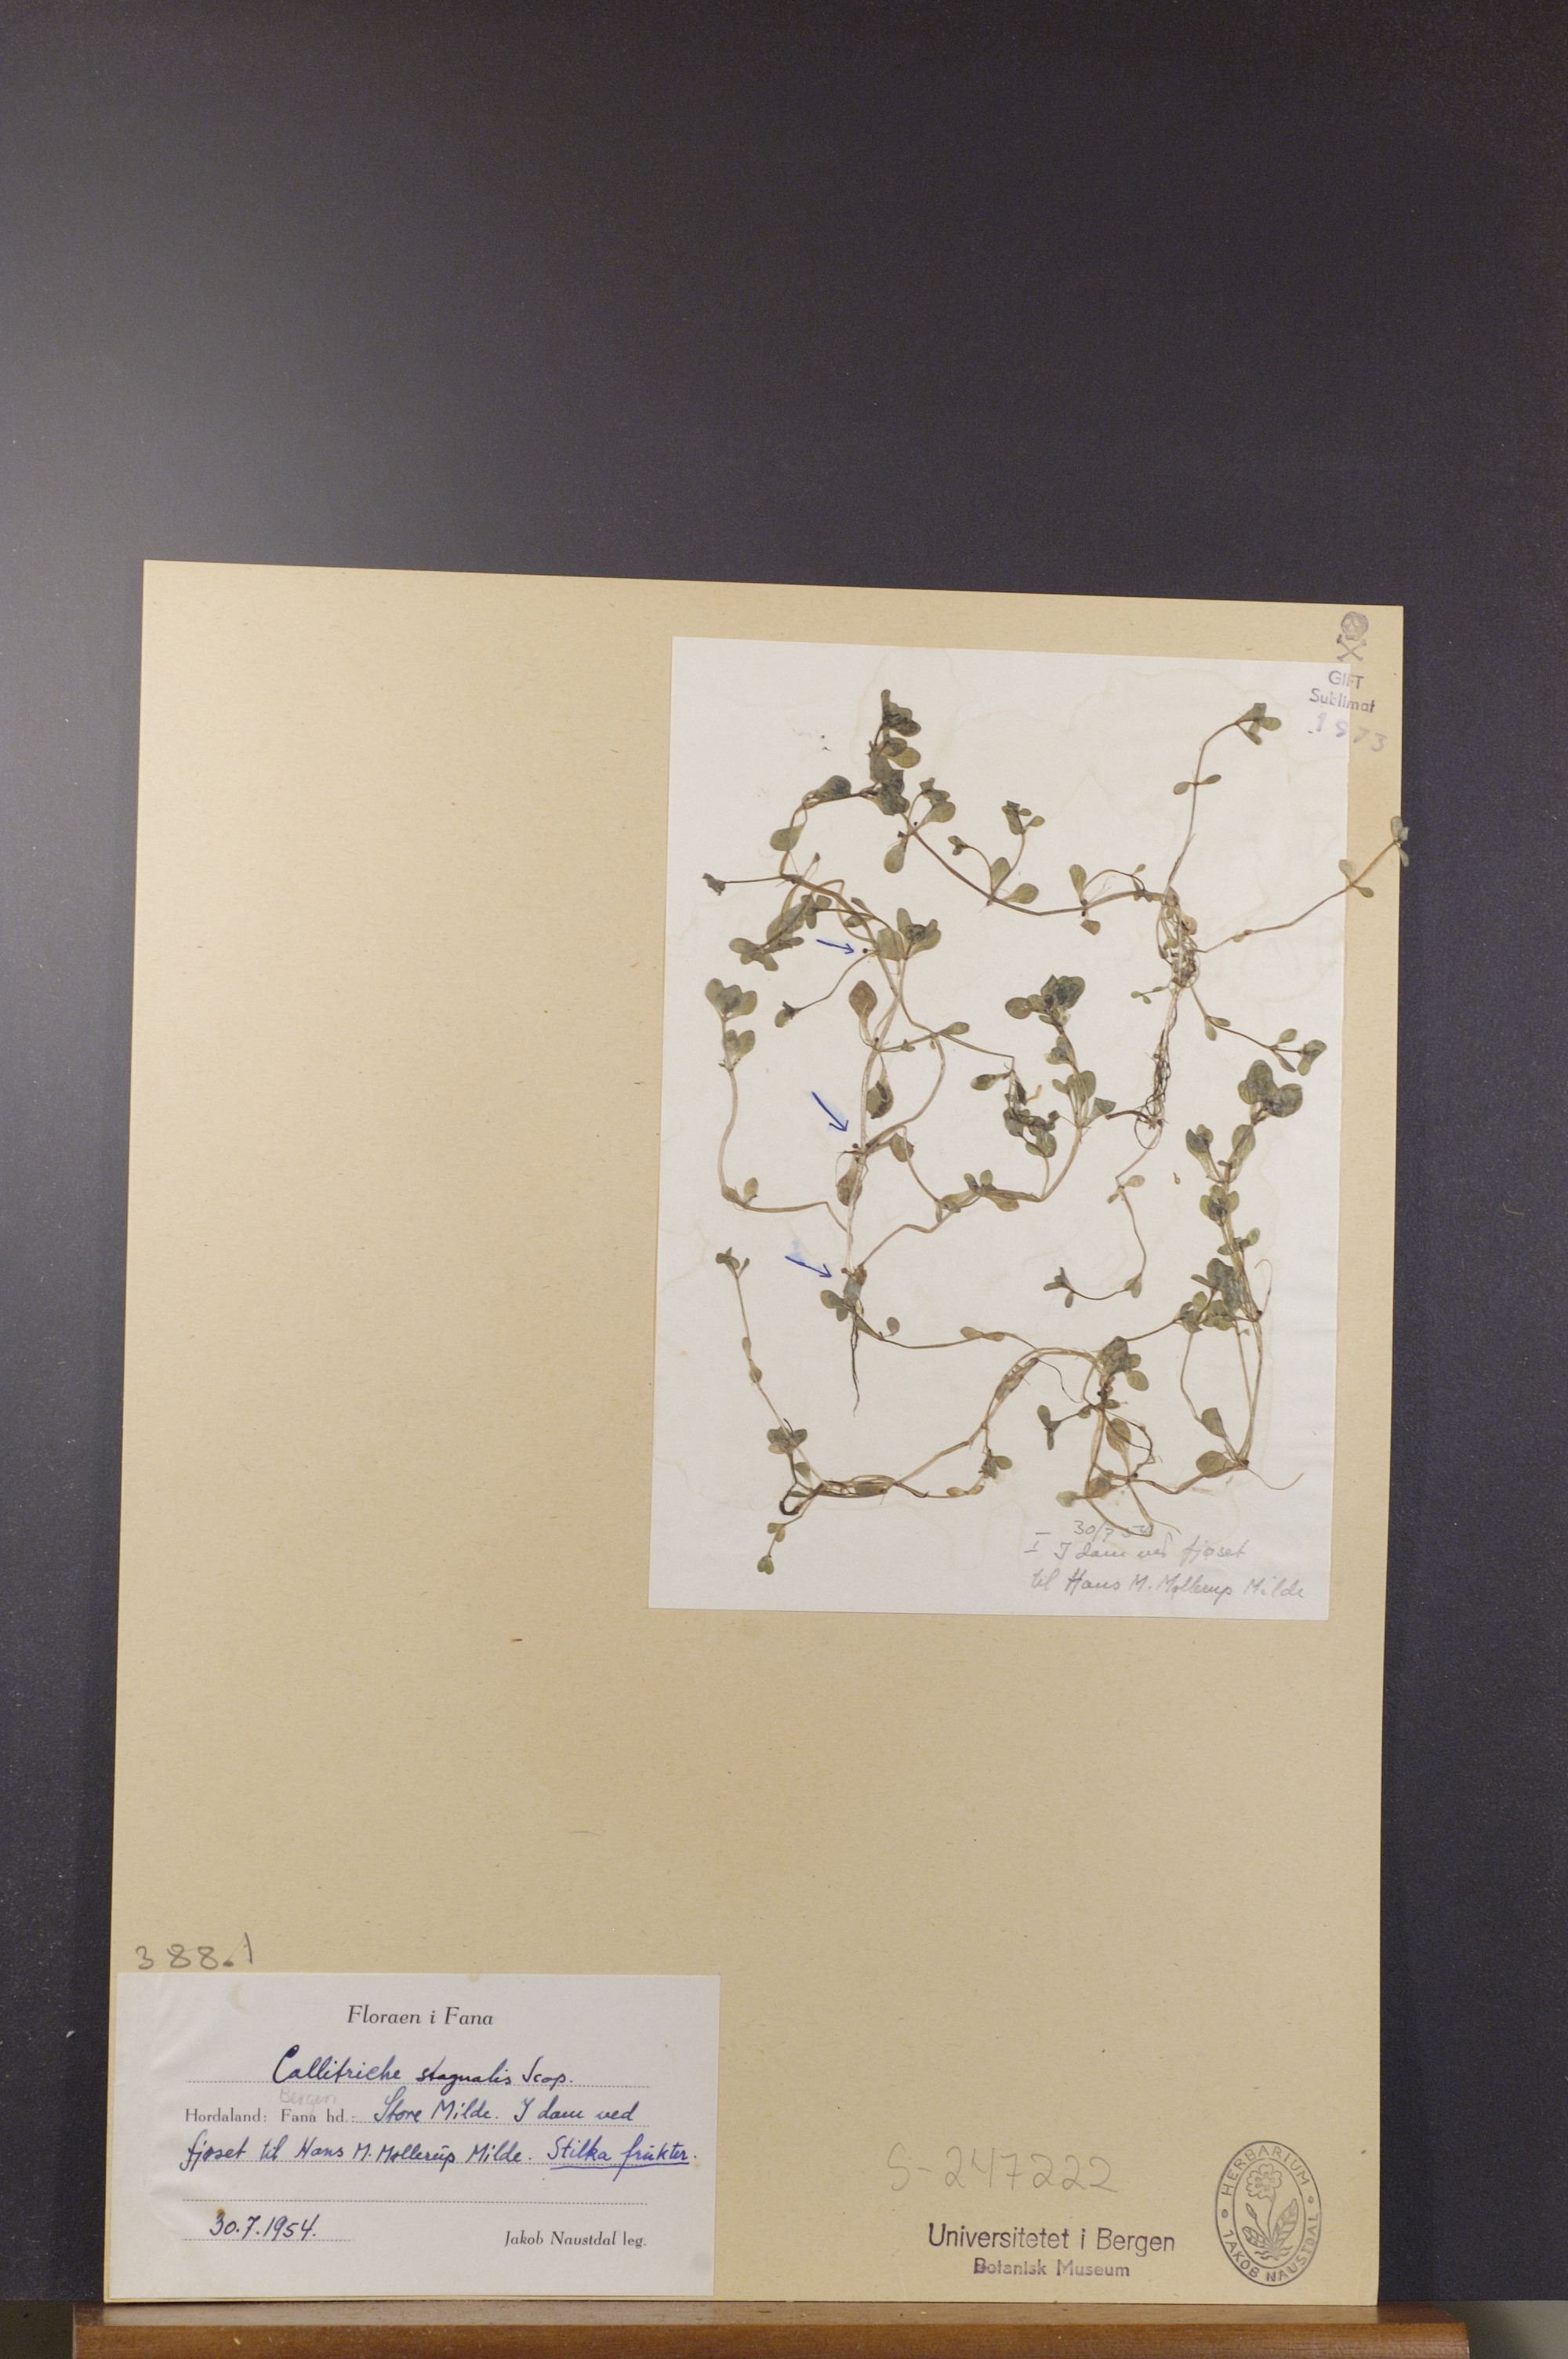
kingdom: Plantae
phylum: Tracheophyta
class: Magnoliopsida
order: Lamiales
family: Plantaginaceae
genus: Callitriche
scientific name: Callitriche stagnalis
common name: Common water-starwort
